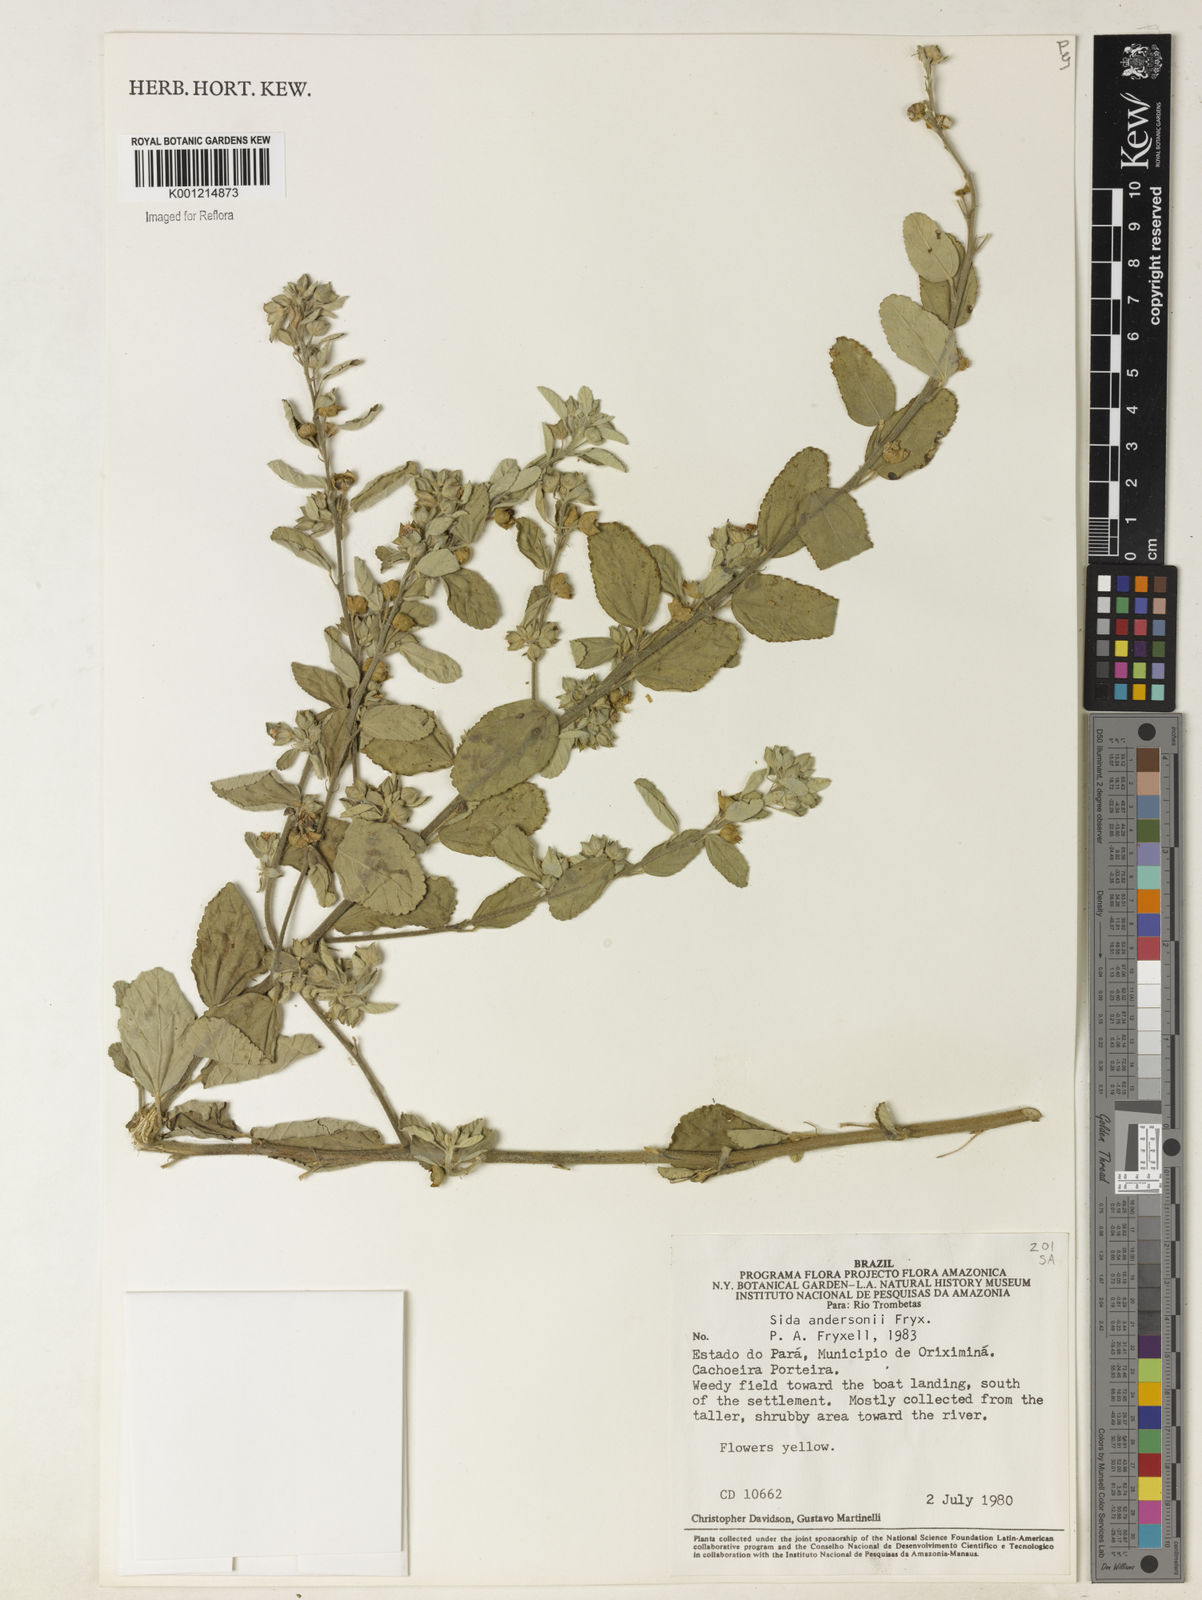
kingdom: Plantae
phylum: Tracheophyta
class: Magnoliopsida
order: Malvales
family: Malvaceae
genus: Sida
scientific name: Sida andersonii
